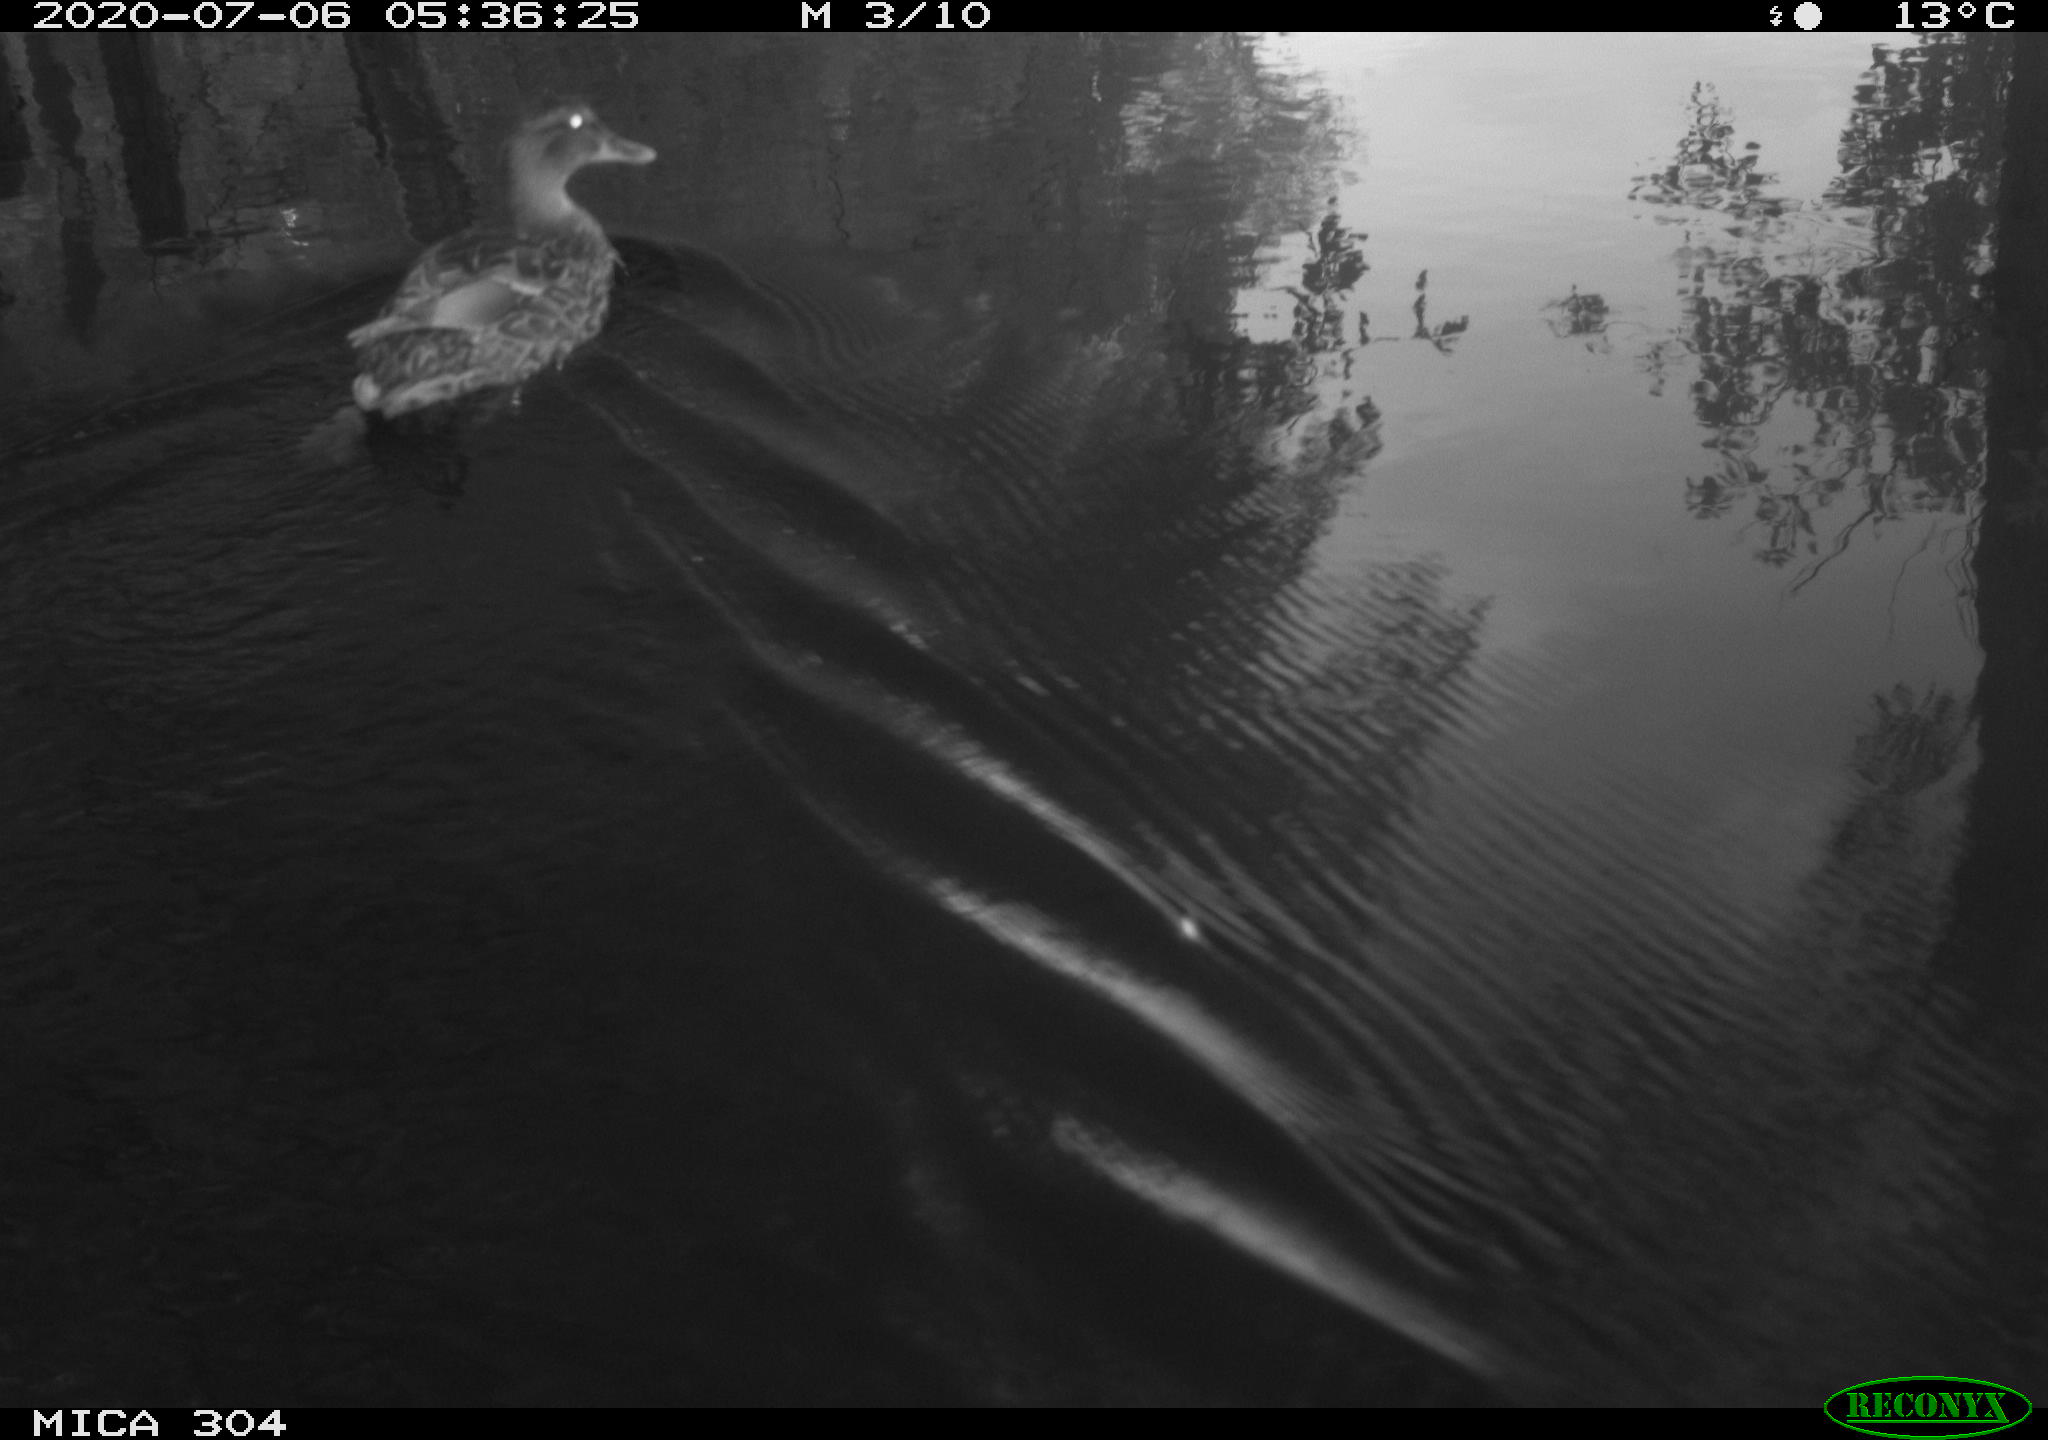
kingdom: Animalia
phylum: Chordata
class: Aves
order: Anseriformes
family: Anatidae
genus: Anas
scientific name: Anas platyrhynchos
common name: Mallard
